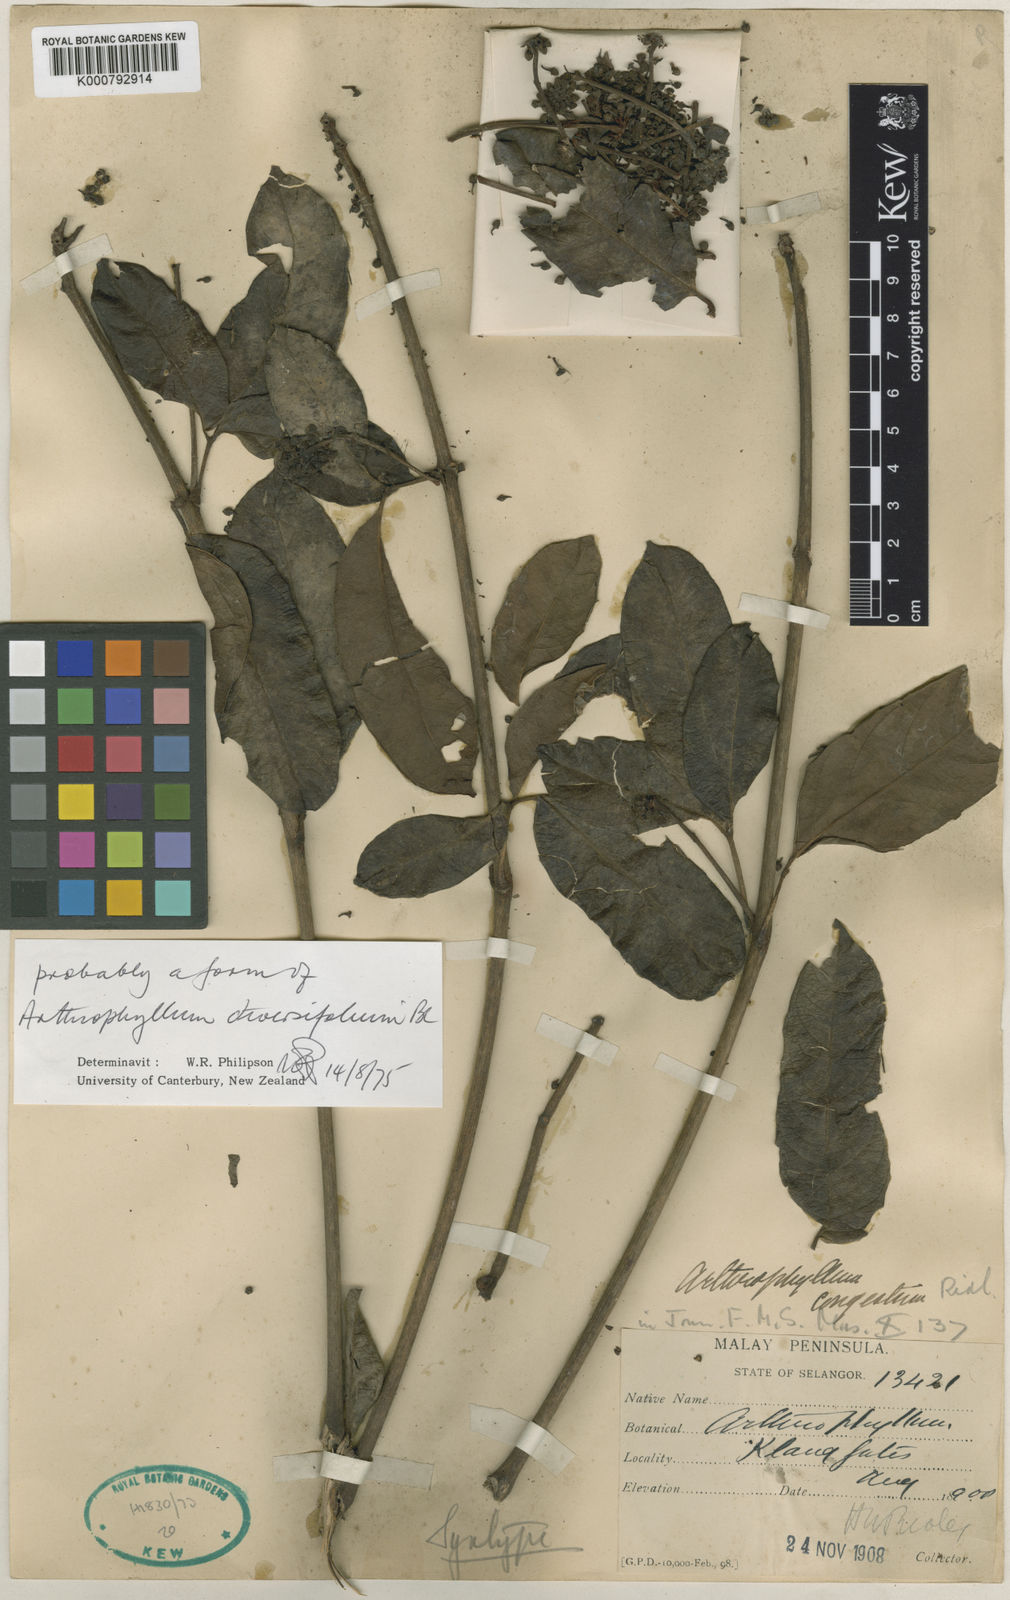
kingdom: Plantae
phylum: Tracheophyta
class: Magnoliopsida
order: Apiales
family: Araliaceae
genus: Polyscias
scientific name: Polyscias diversifolia
